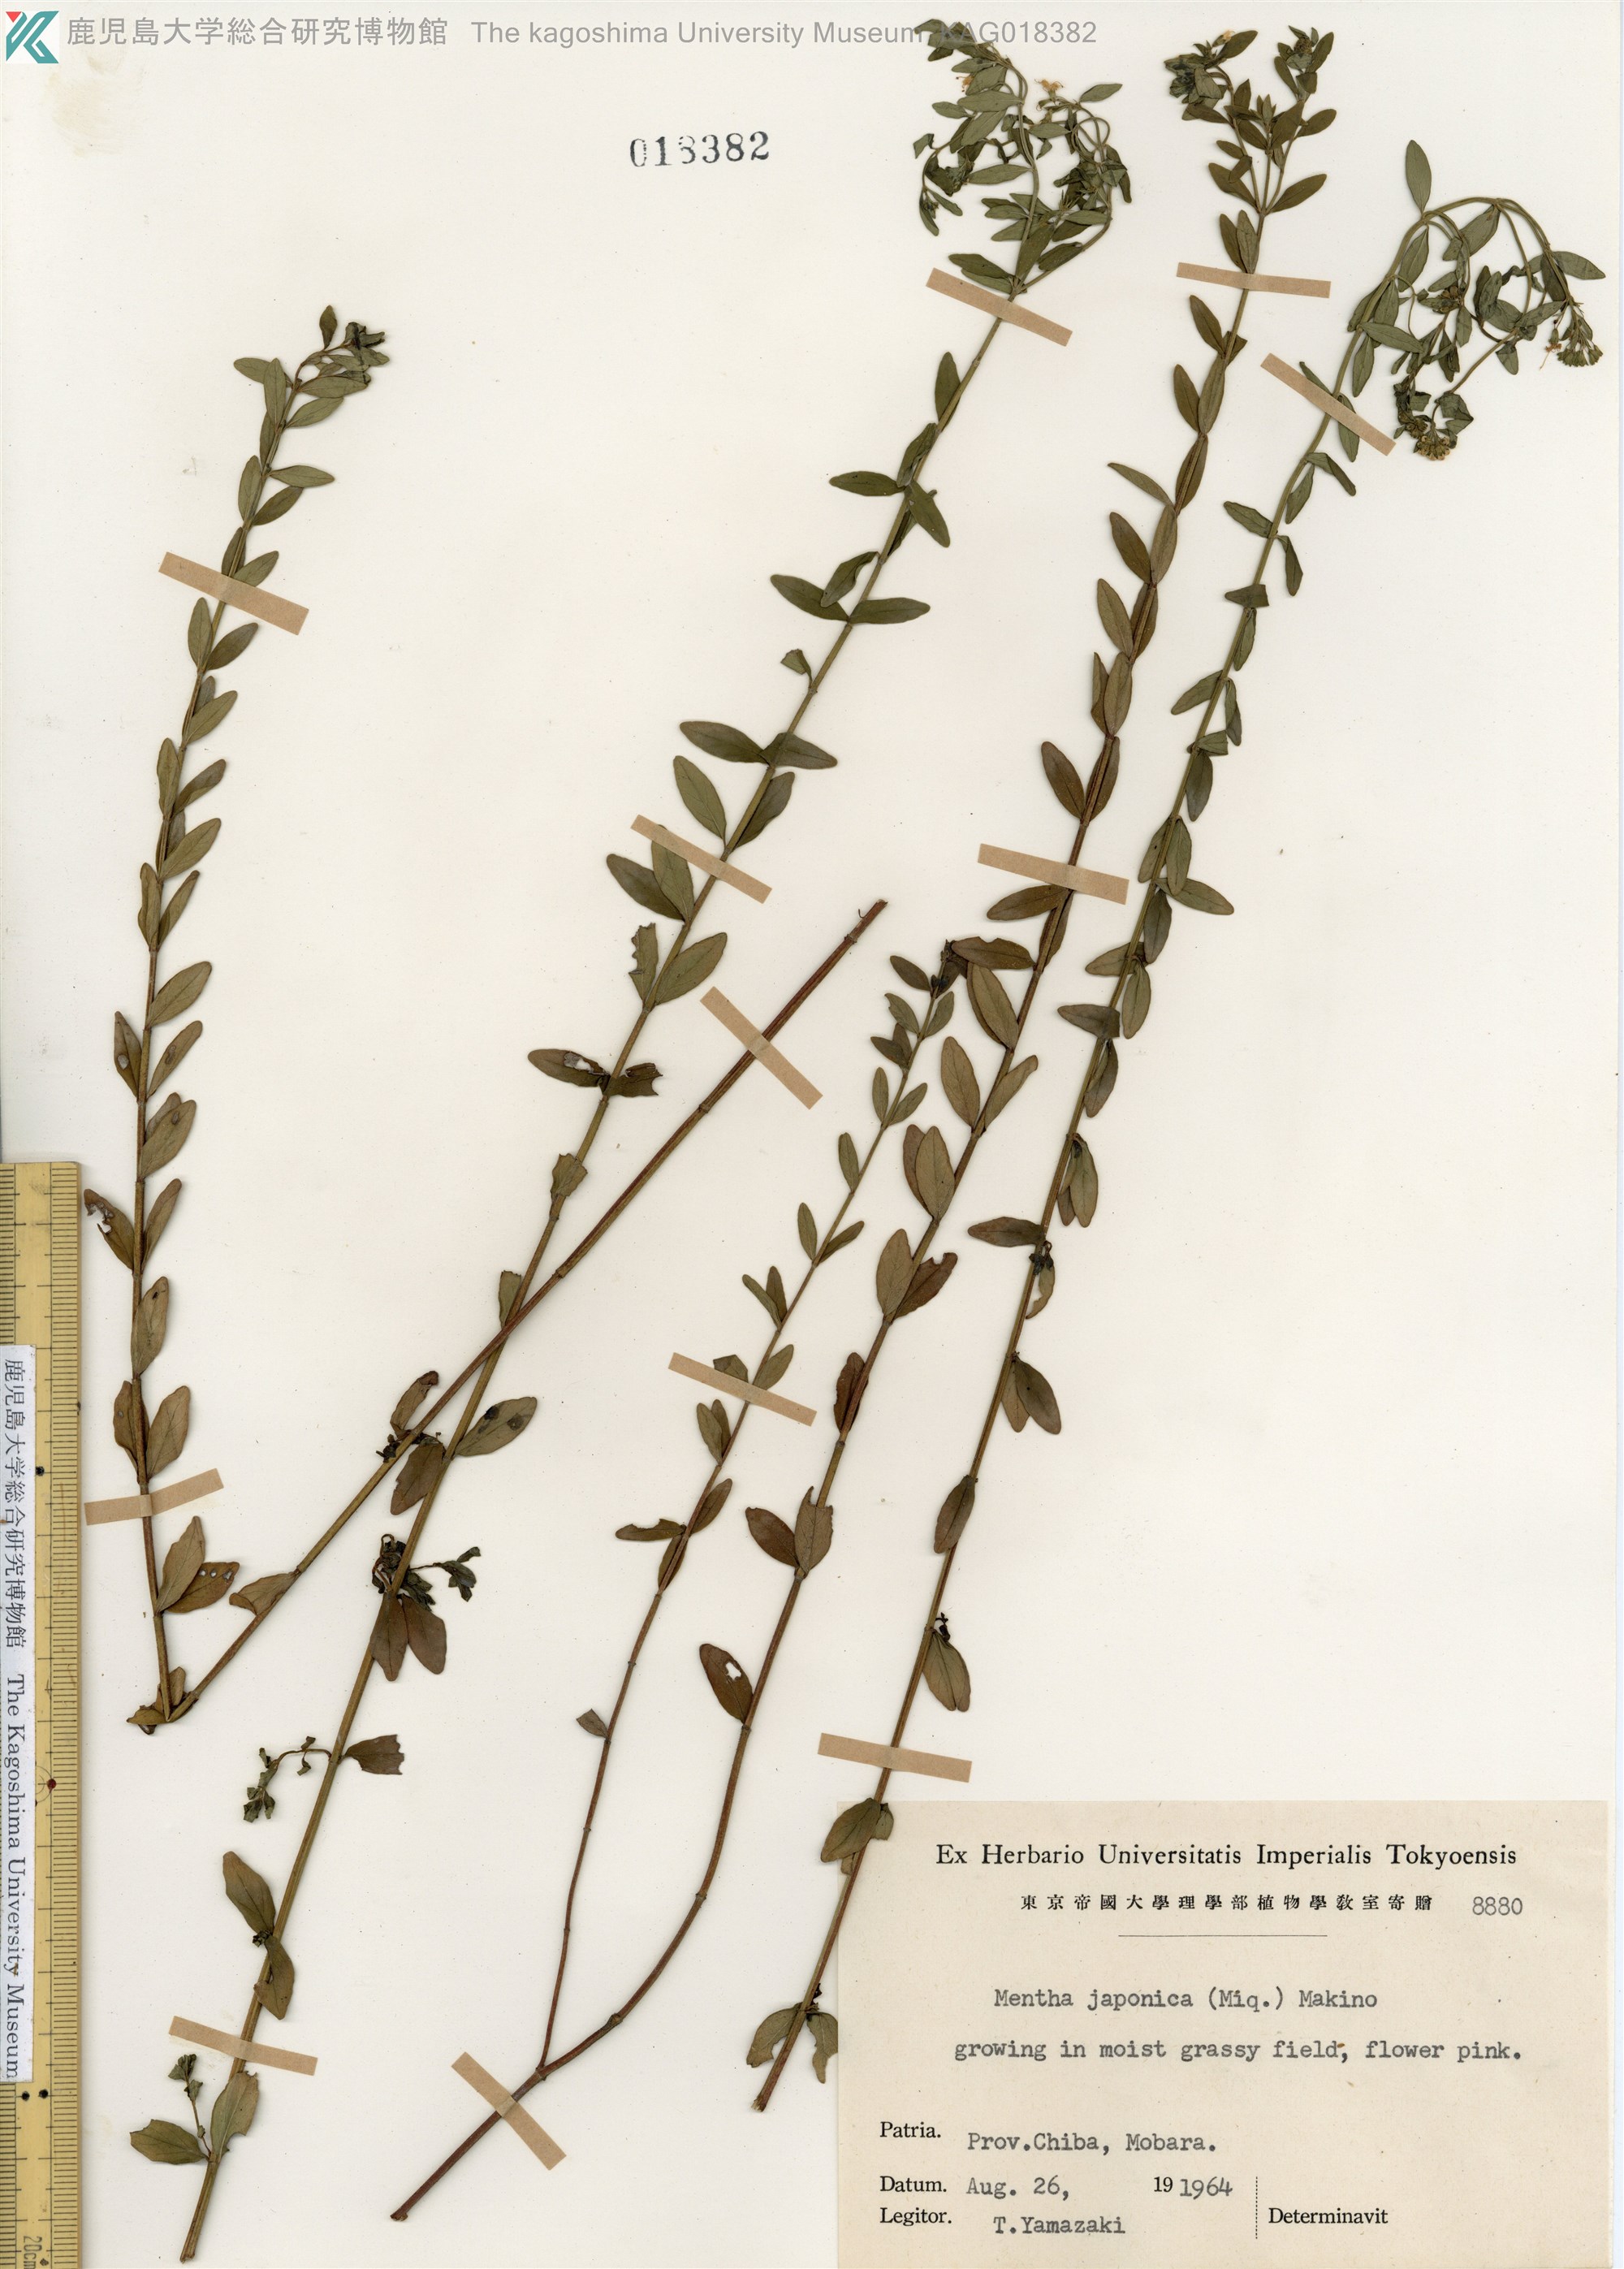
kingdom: Plantae
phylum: Tracheophyta
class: Magnoliopsida
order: Lamiales
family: Lamiaceae
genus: Mentha
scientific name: Mentha japonica
